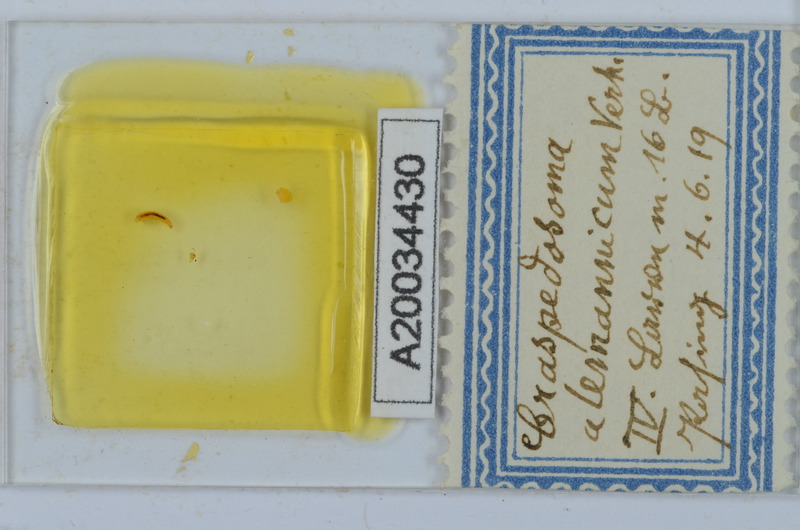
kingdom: Animalia
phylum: Arthropoda
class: Diplopoda
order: Chordeumatida
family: Craspedosomatidae
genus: Craspedosoma
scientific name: Craspedosoma alemannicum
